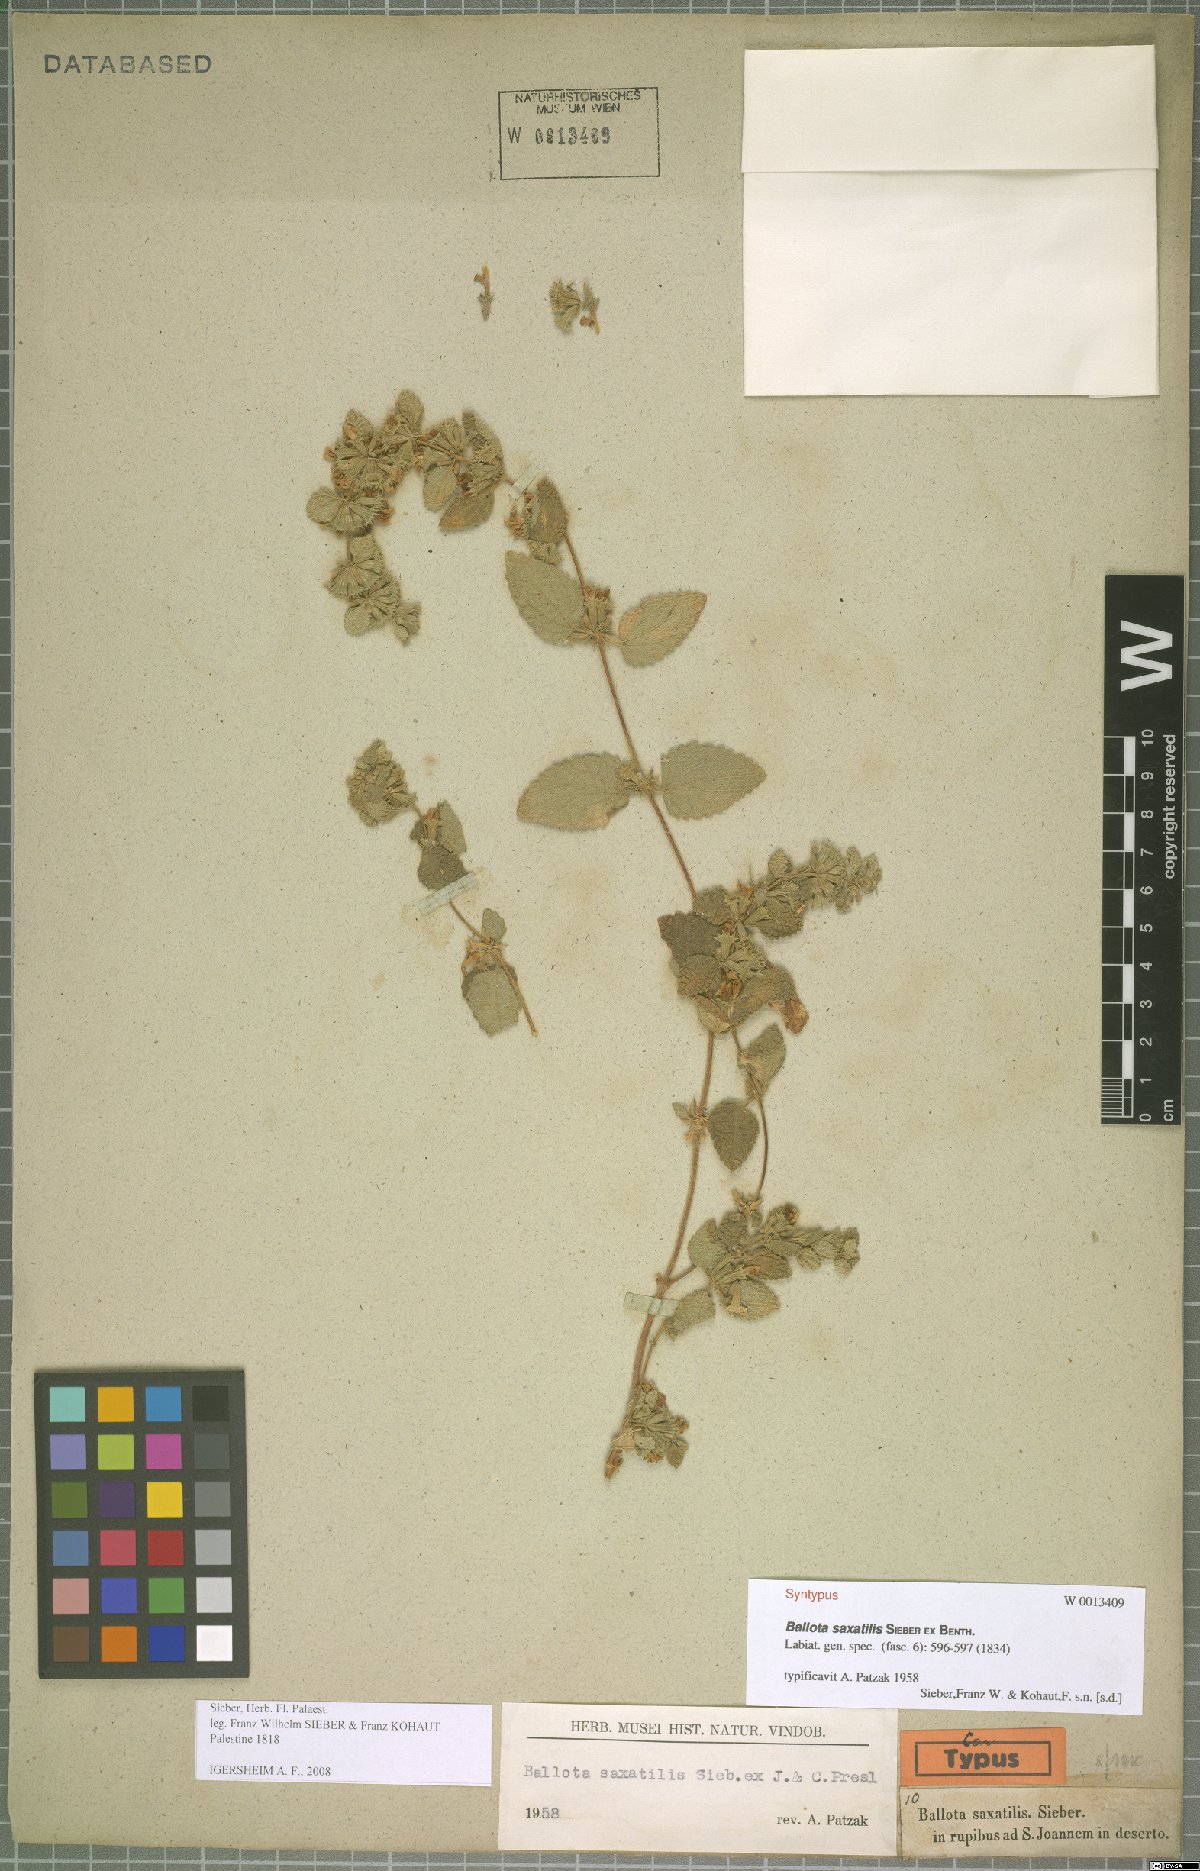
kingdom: Plantae
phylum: Tracheophyta
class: Magnoliopsida
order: Lamiales
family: Lamiaceae
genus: Ballota
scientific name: Ballota saxatilis
